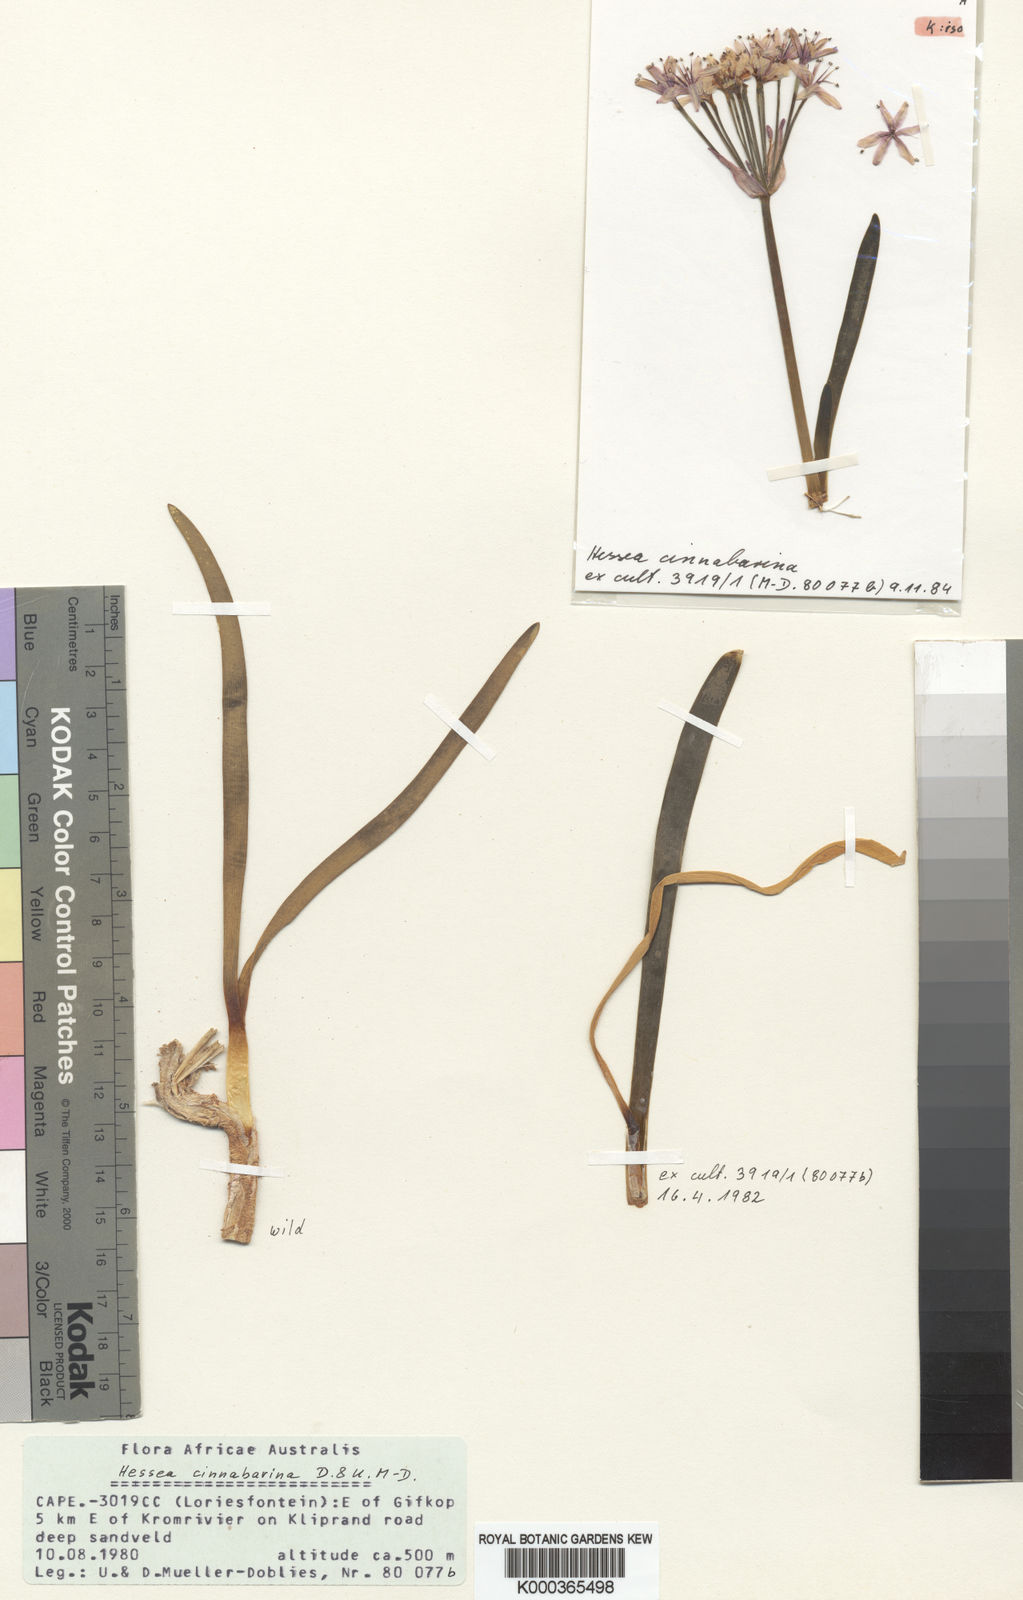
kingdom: Plantae
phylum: Tracheophyta
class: Liliopsida
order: Asparagales
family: Amaryllidaceae
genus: Hessea
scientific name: Hessea stellaris
